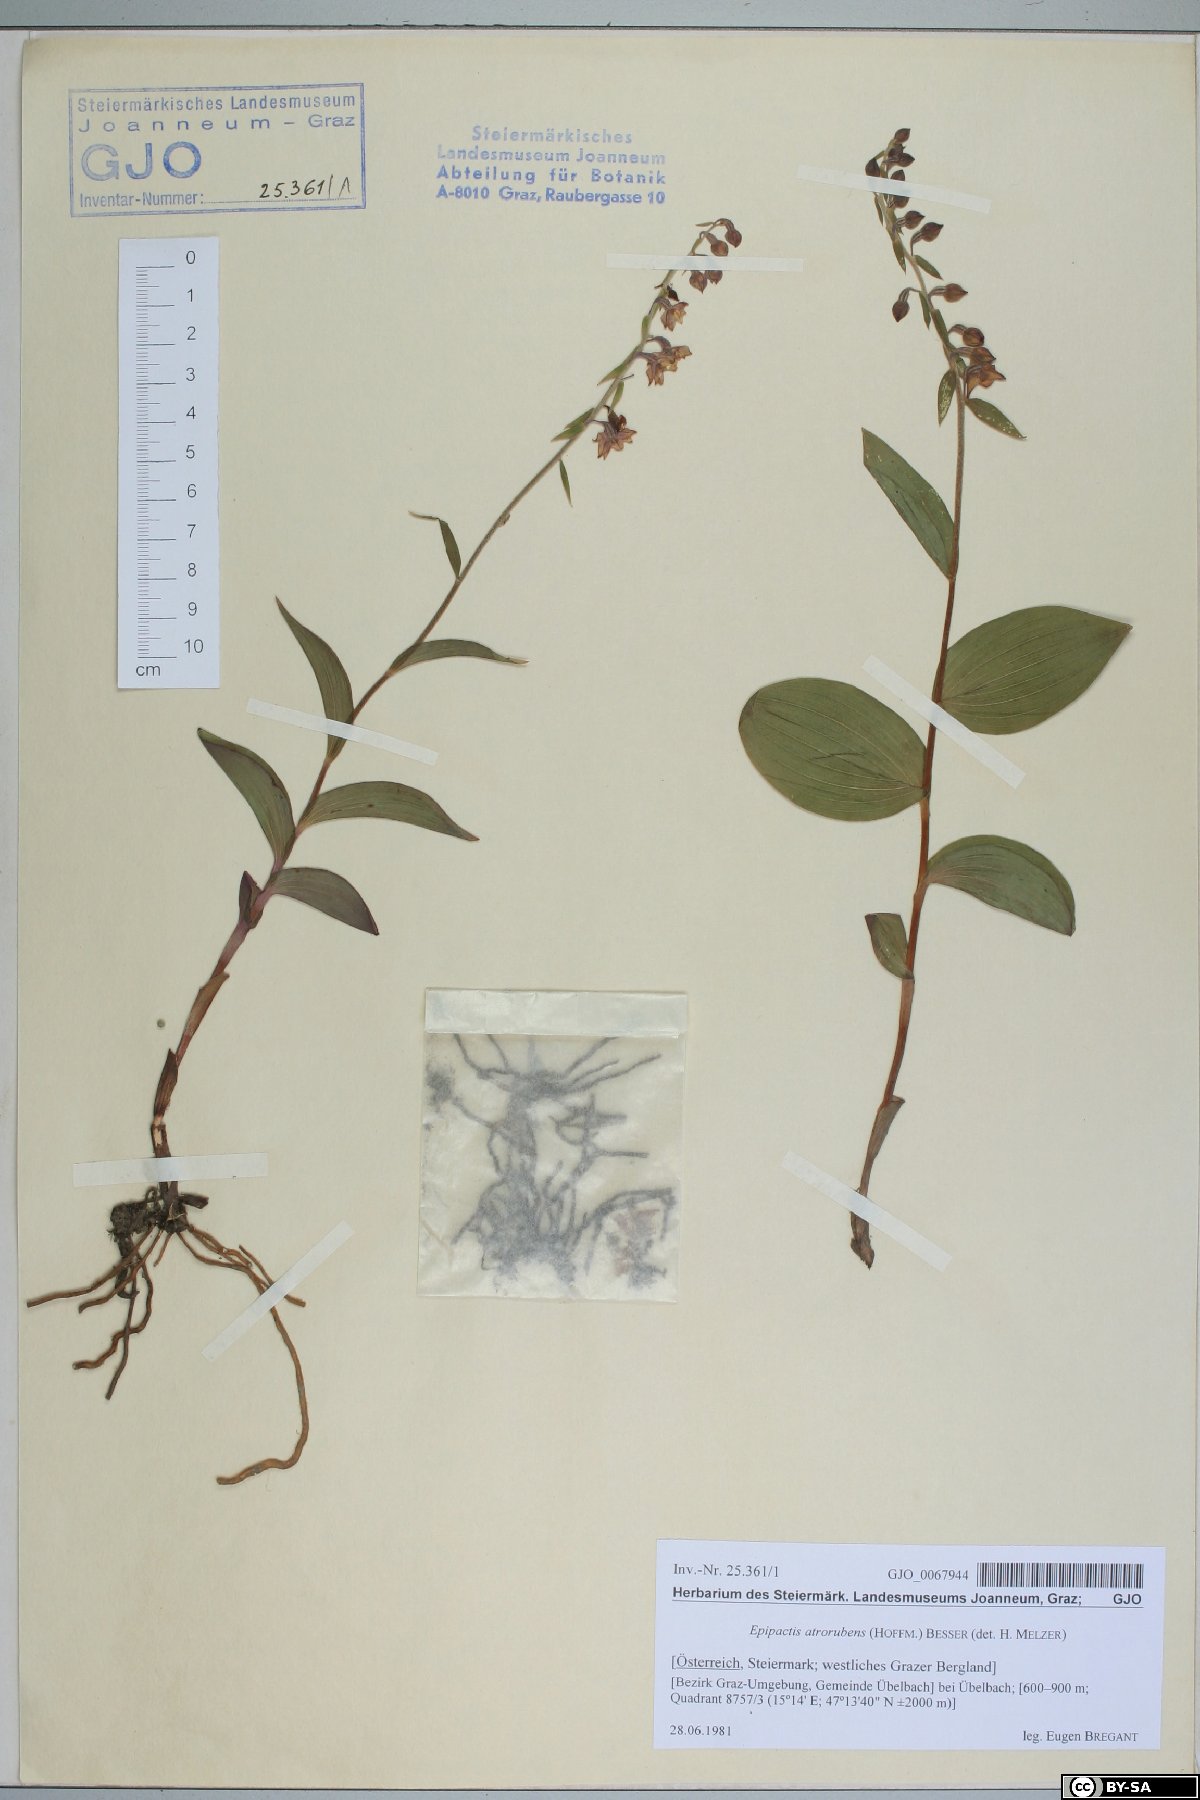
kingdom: Plantae
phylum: Tracheophyta
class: Liliopsida
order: Asparagales
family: Orchidaceae
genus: Epipactis
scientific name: Epipactis atrorubens
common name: Dark-red helleborine
